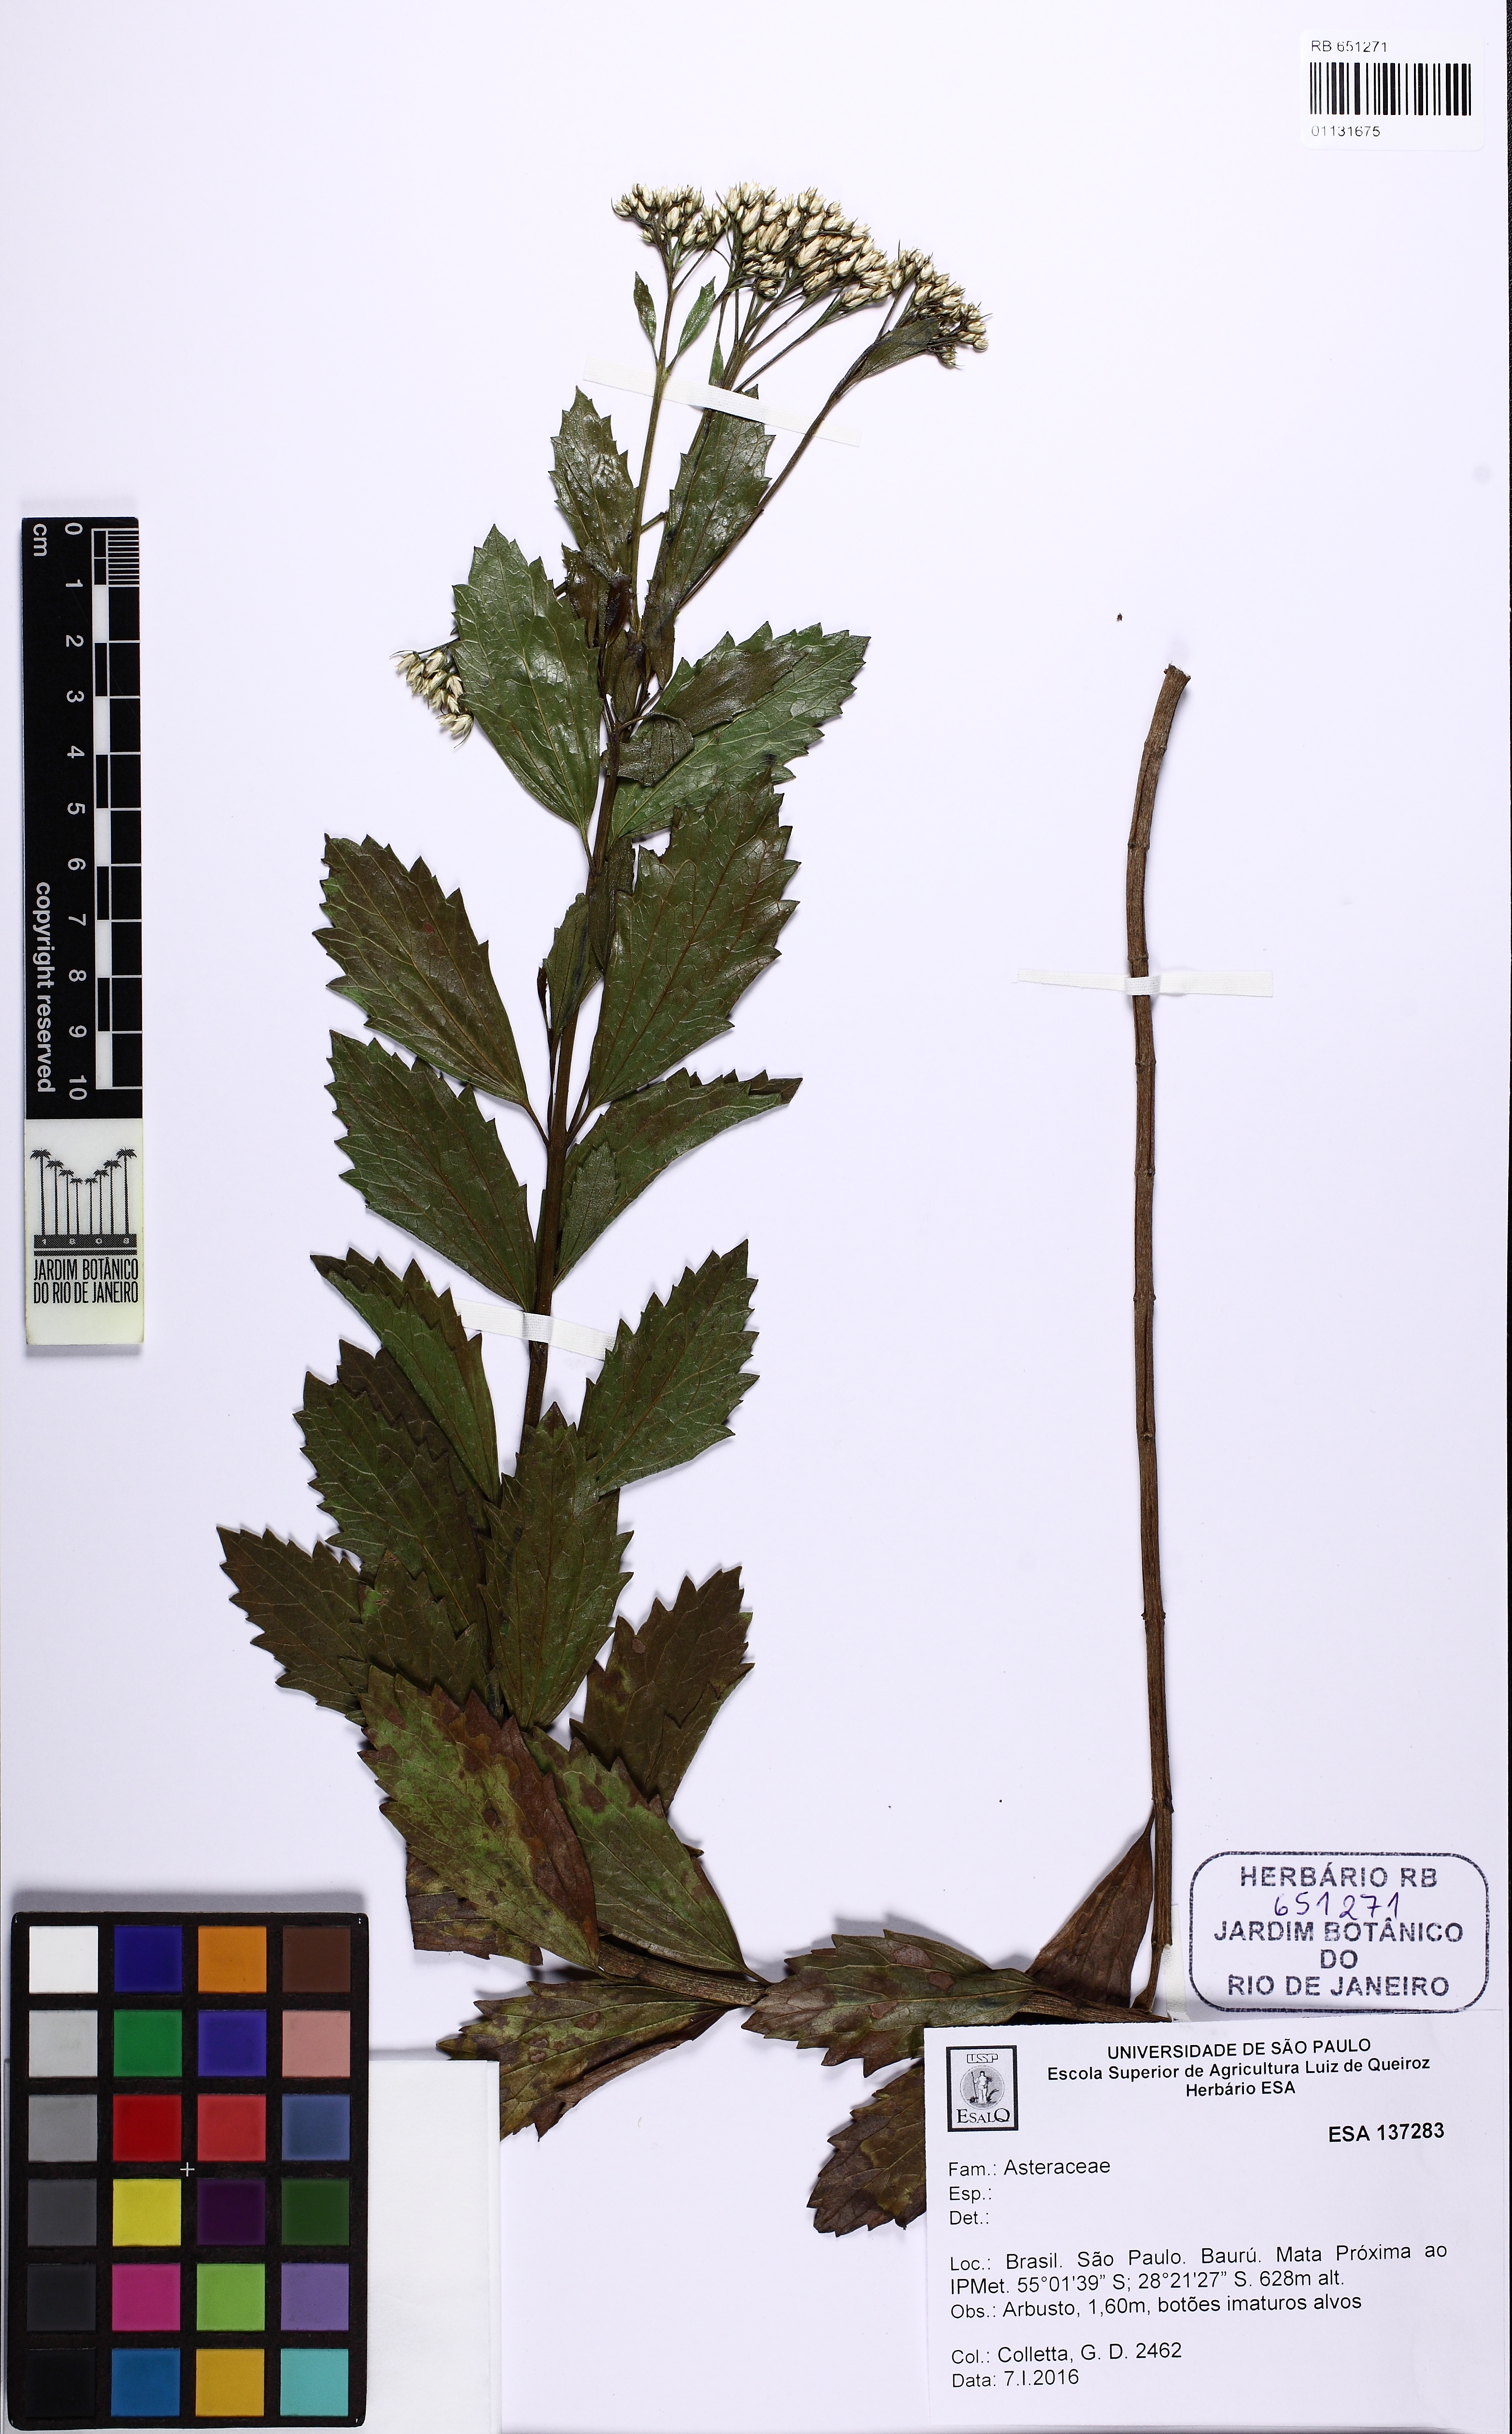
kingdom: Plantae
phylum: Tracheophyta
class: Magnoliopsida
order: Asterales
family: Asteraceae
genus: Symphyopappus
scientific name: Symphyopappus
